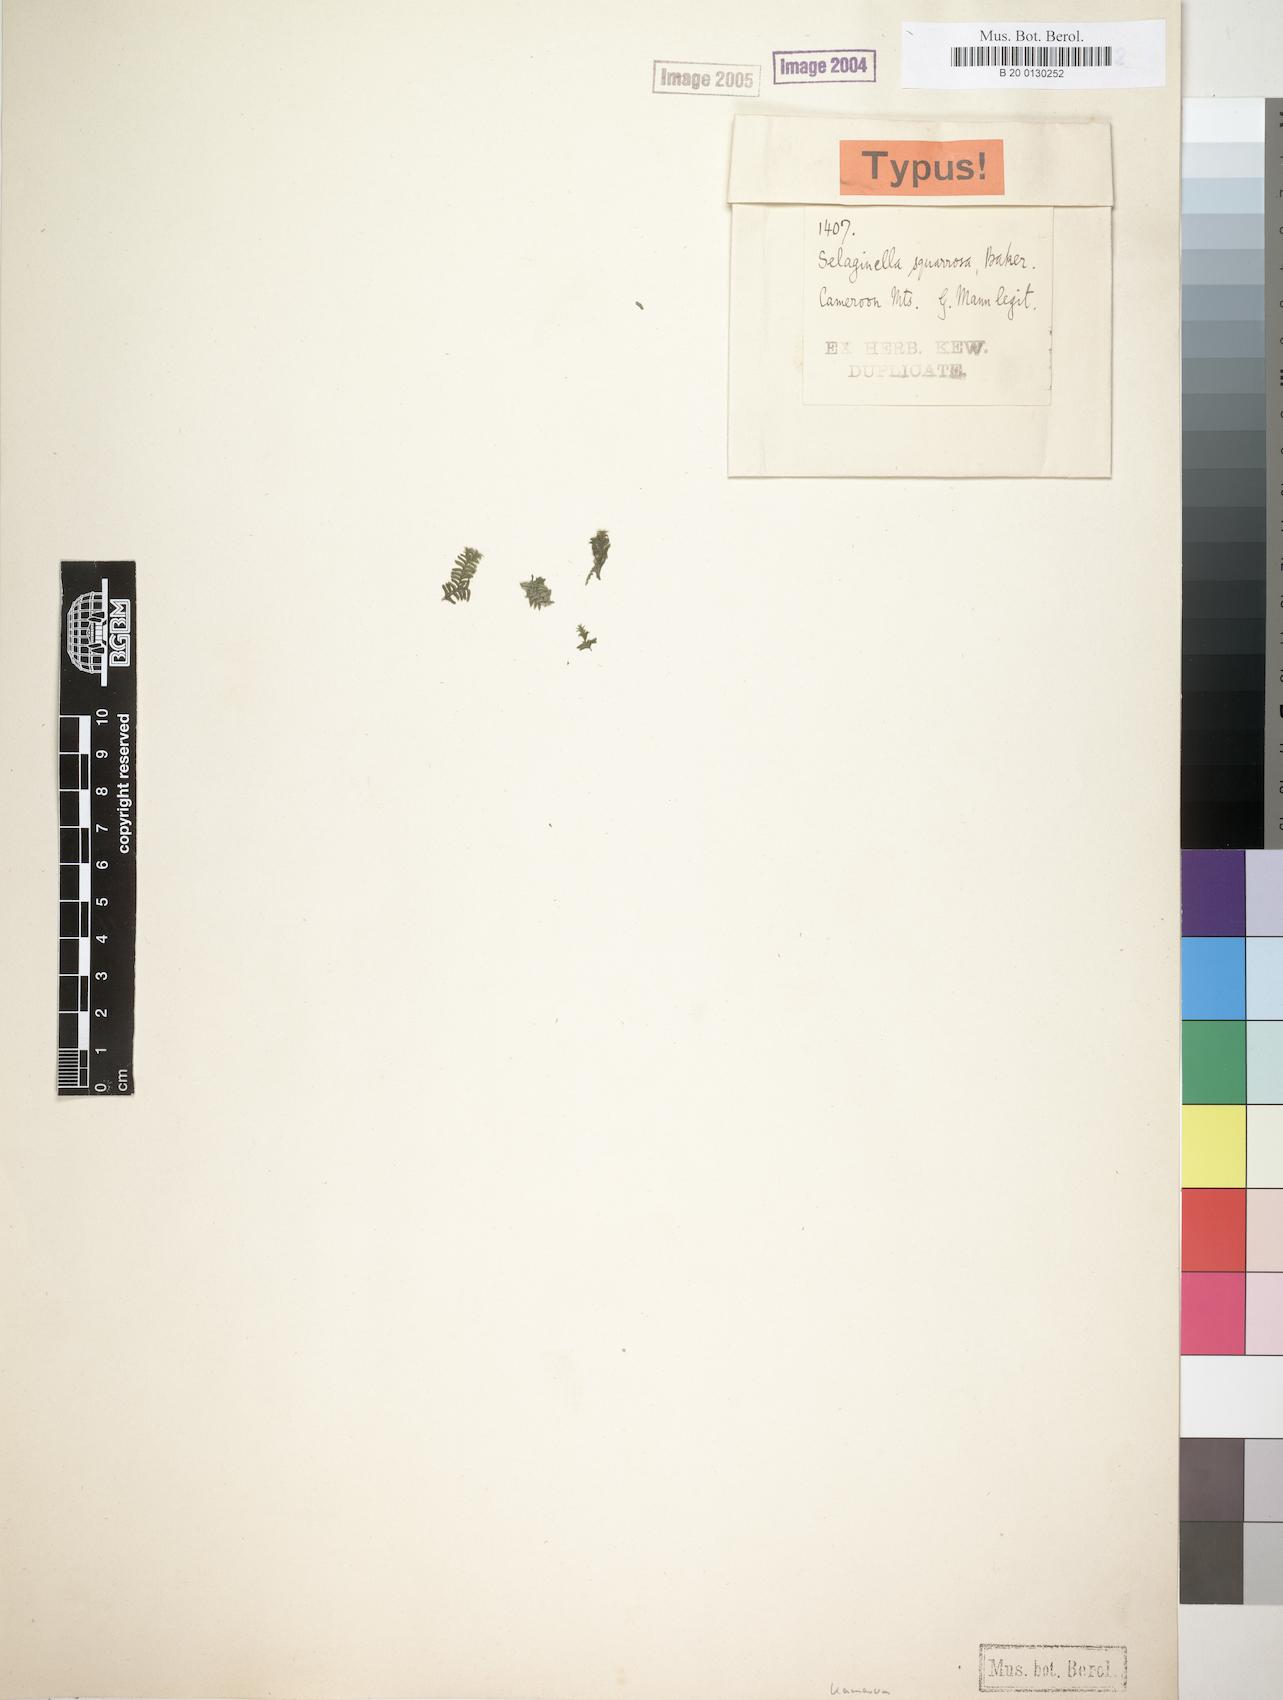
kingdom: Plantae
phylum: Tracheophyta
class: Lycopodiopsida
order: Selaginellales
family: Selaginellaceae
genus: Selaginella
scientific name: Selaginella squarrosa
